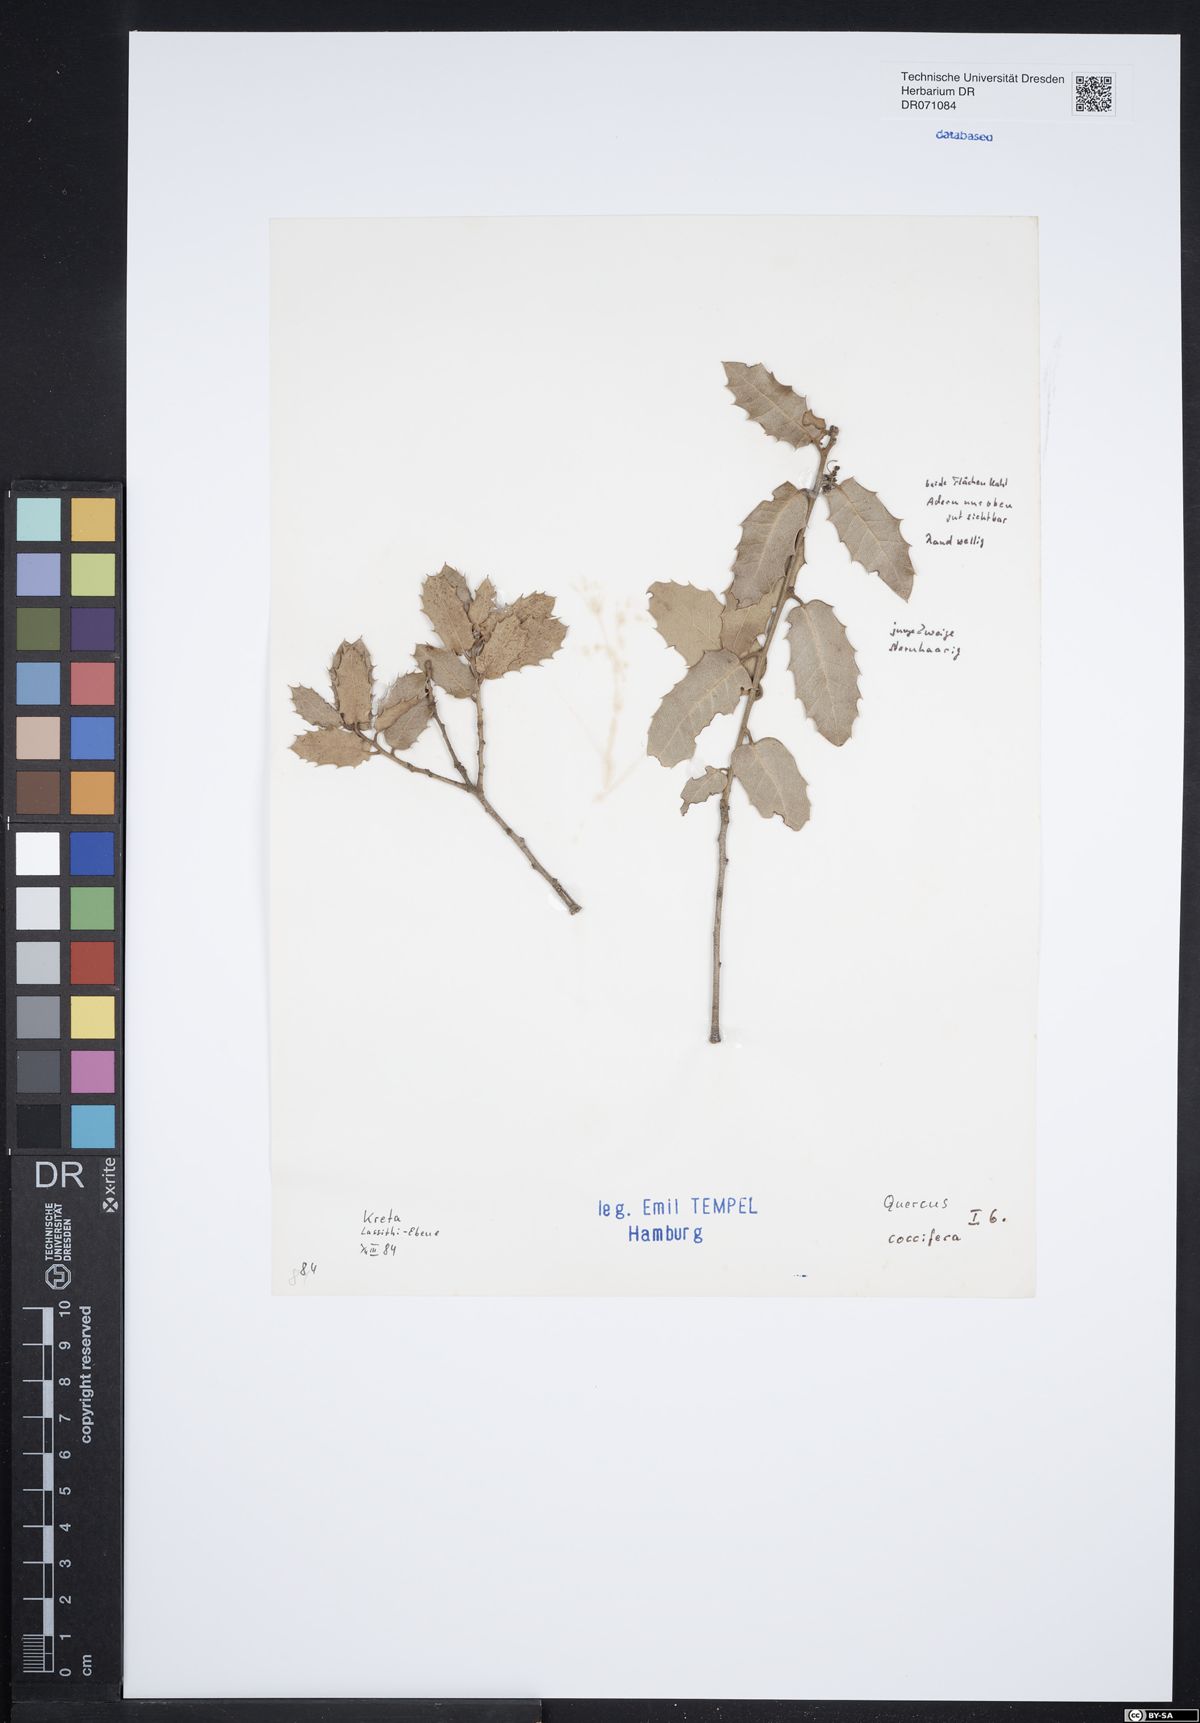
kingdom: Plantae
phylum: Tracheophyta
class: Magnoliopsida
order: Fagales
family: Fagaceae
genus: Quercus
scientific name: Quercus coccifera
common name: Kermes oak
